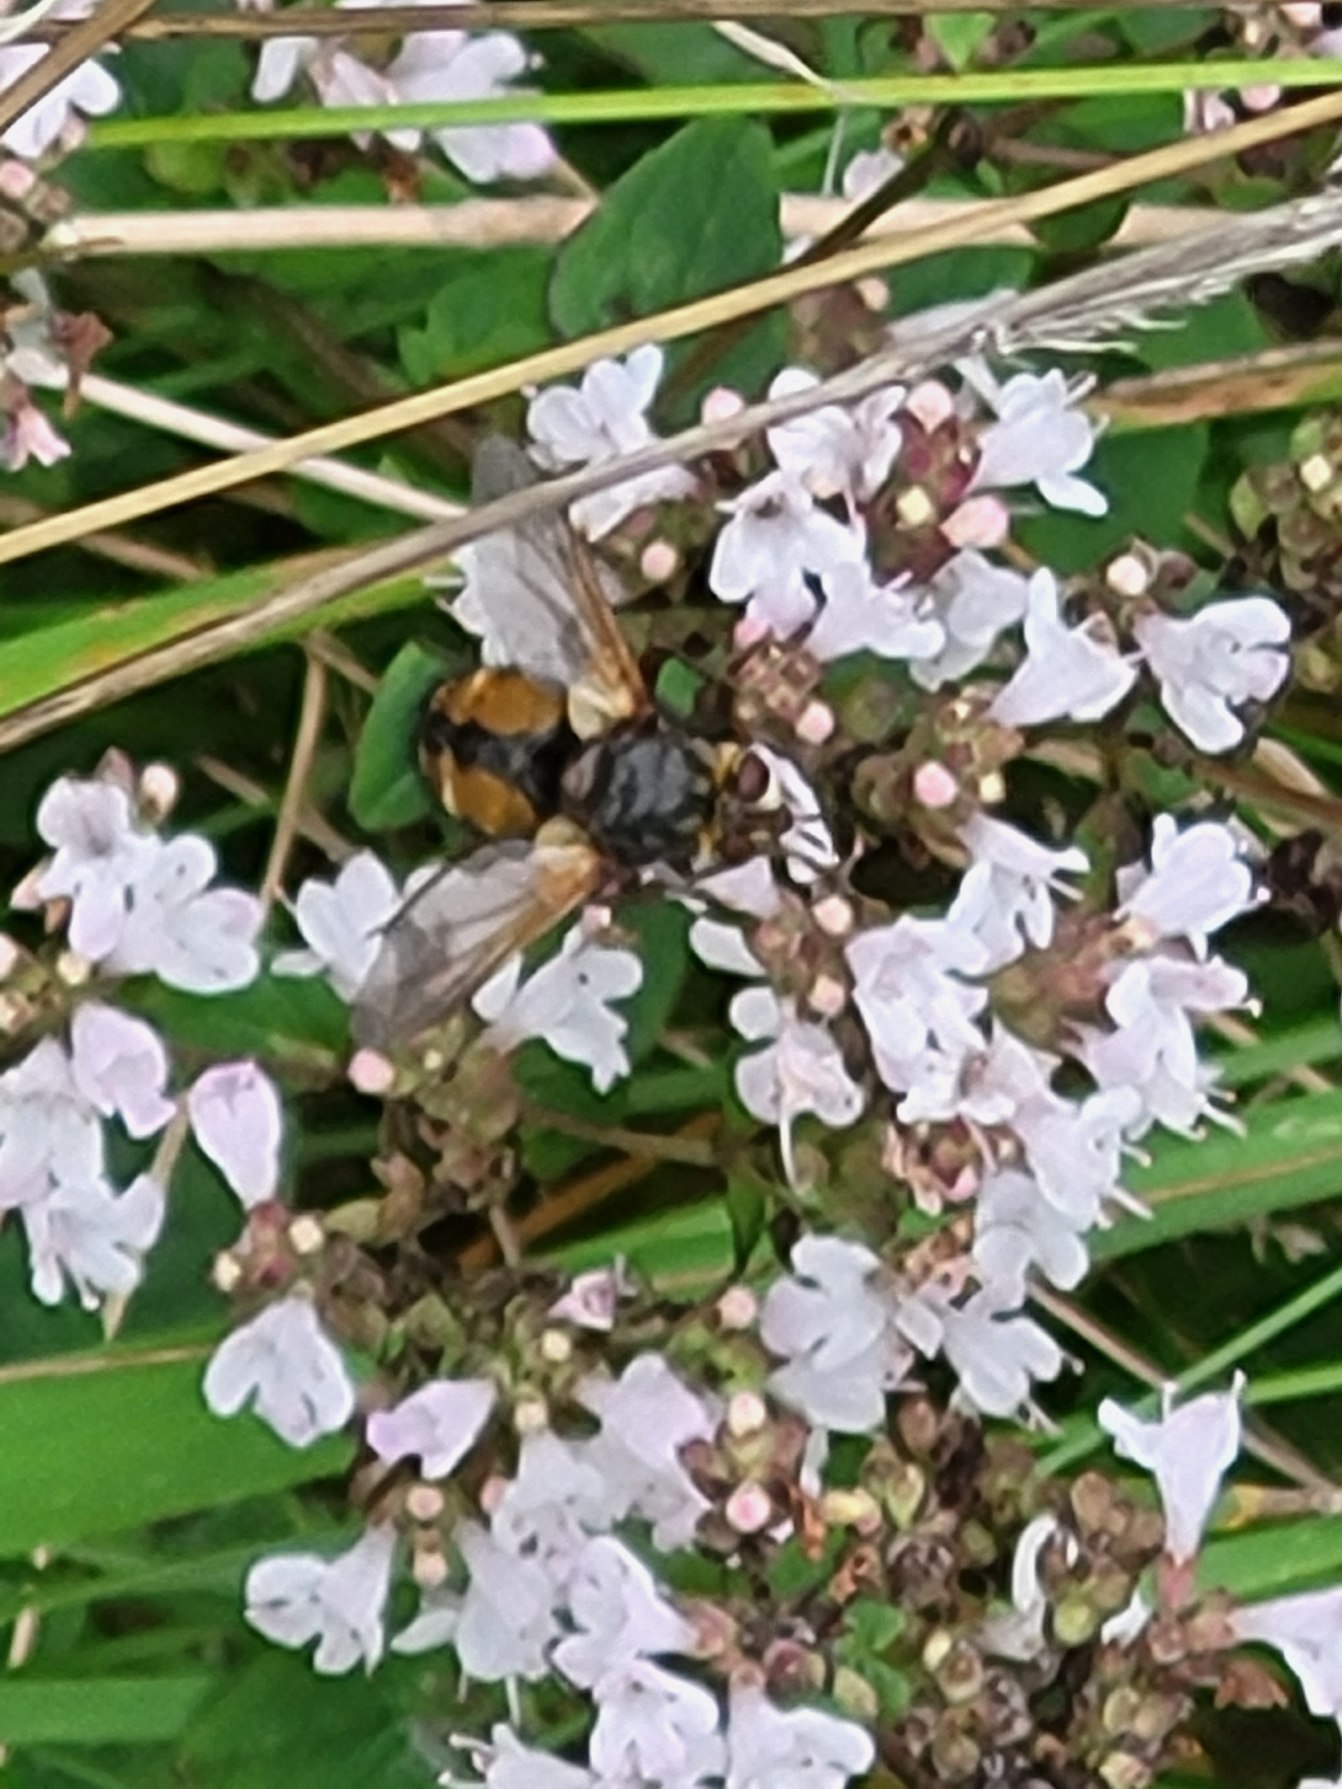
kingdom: Animalia
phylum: Arthropoda
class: Insecta
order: Diptera
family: Tachinidae
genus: Tachina
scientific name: Tachina fera
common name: Mellemfluen oskar
